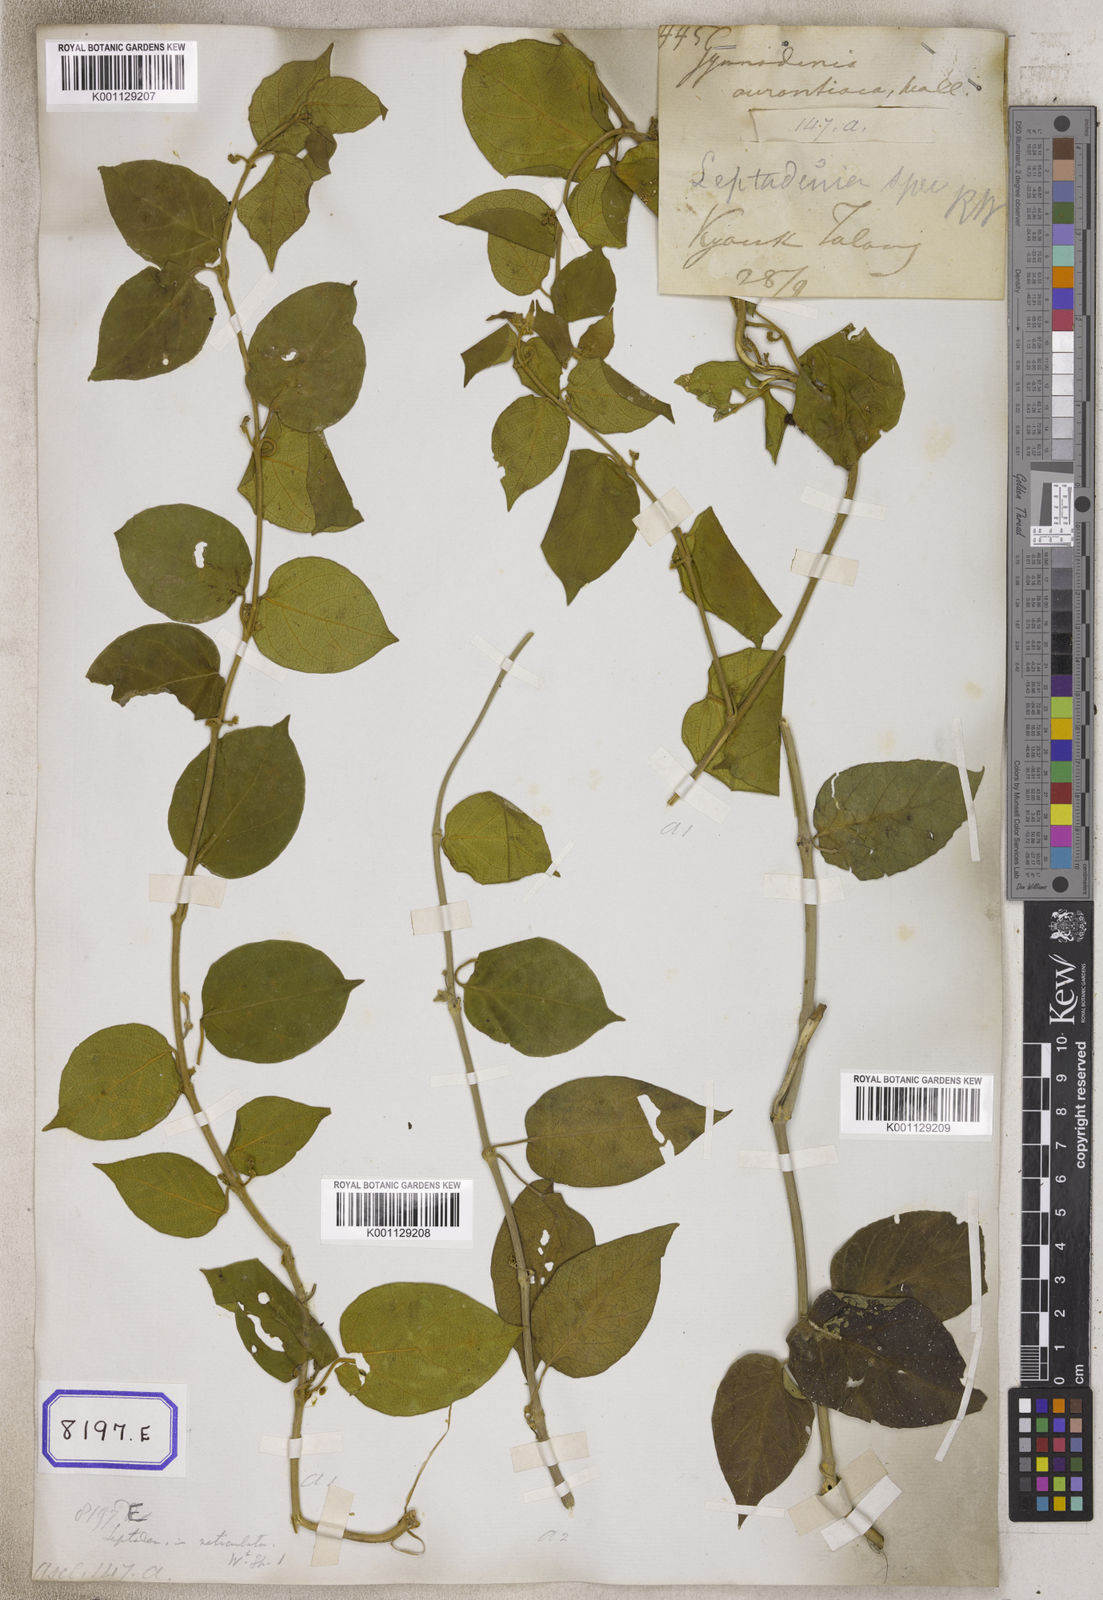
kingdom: Plantae
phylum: Tracheophyta
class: Magnoliopsida
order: Gentianales
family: Apocynaceae
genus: Leptadenia
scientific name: Leptadenia reticulata
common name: Leptadenia
